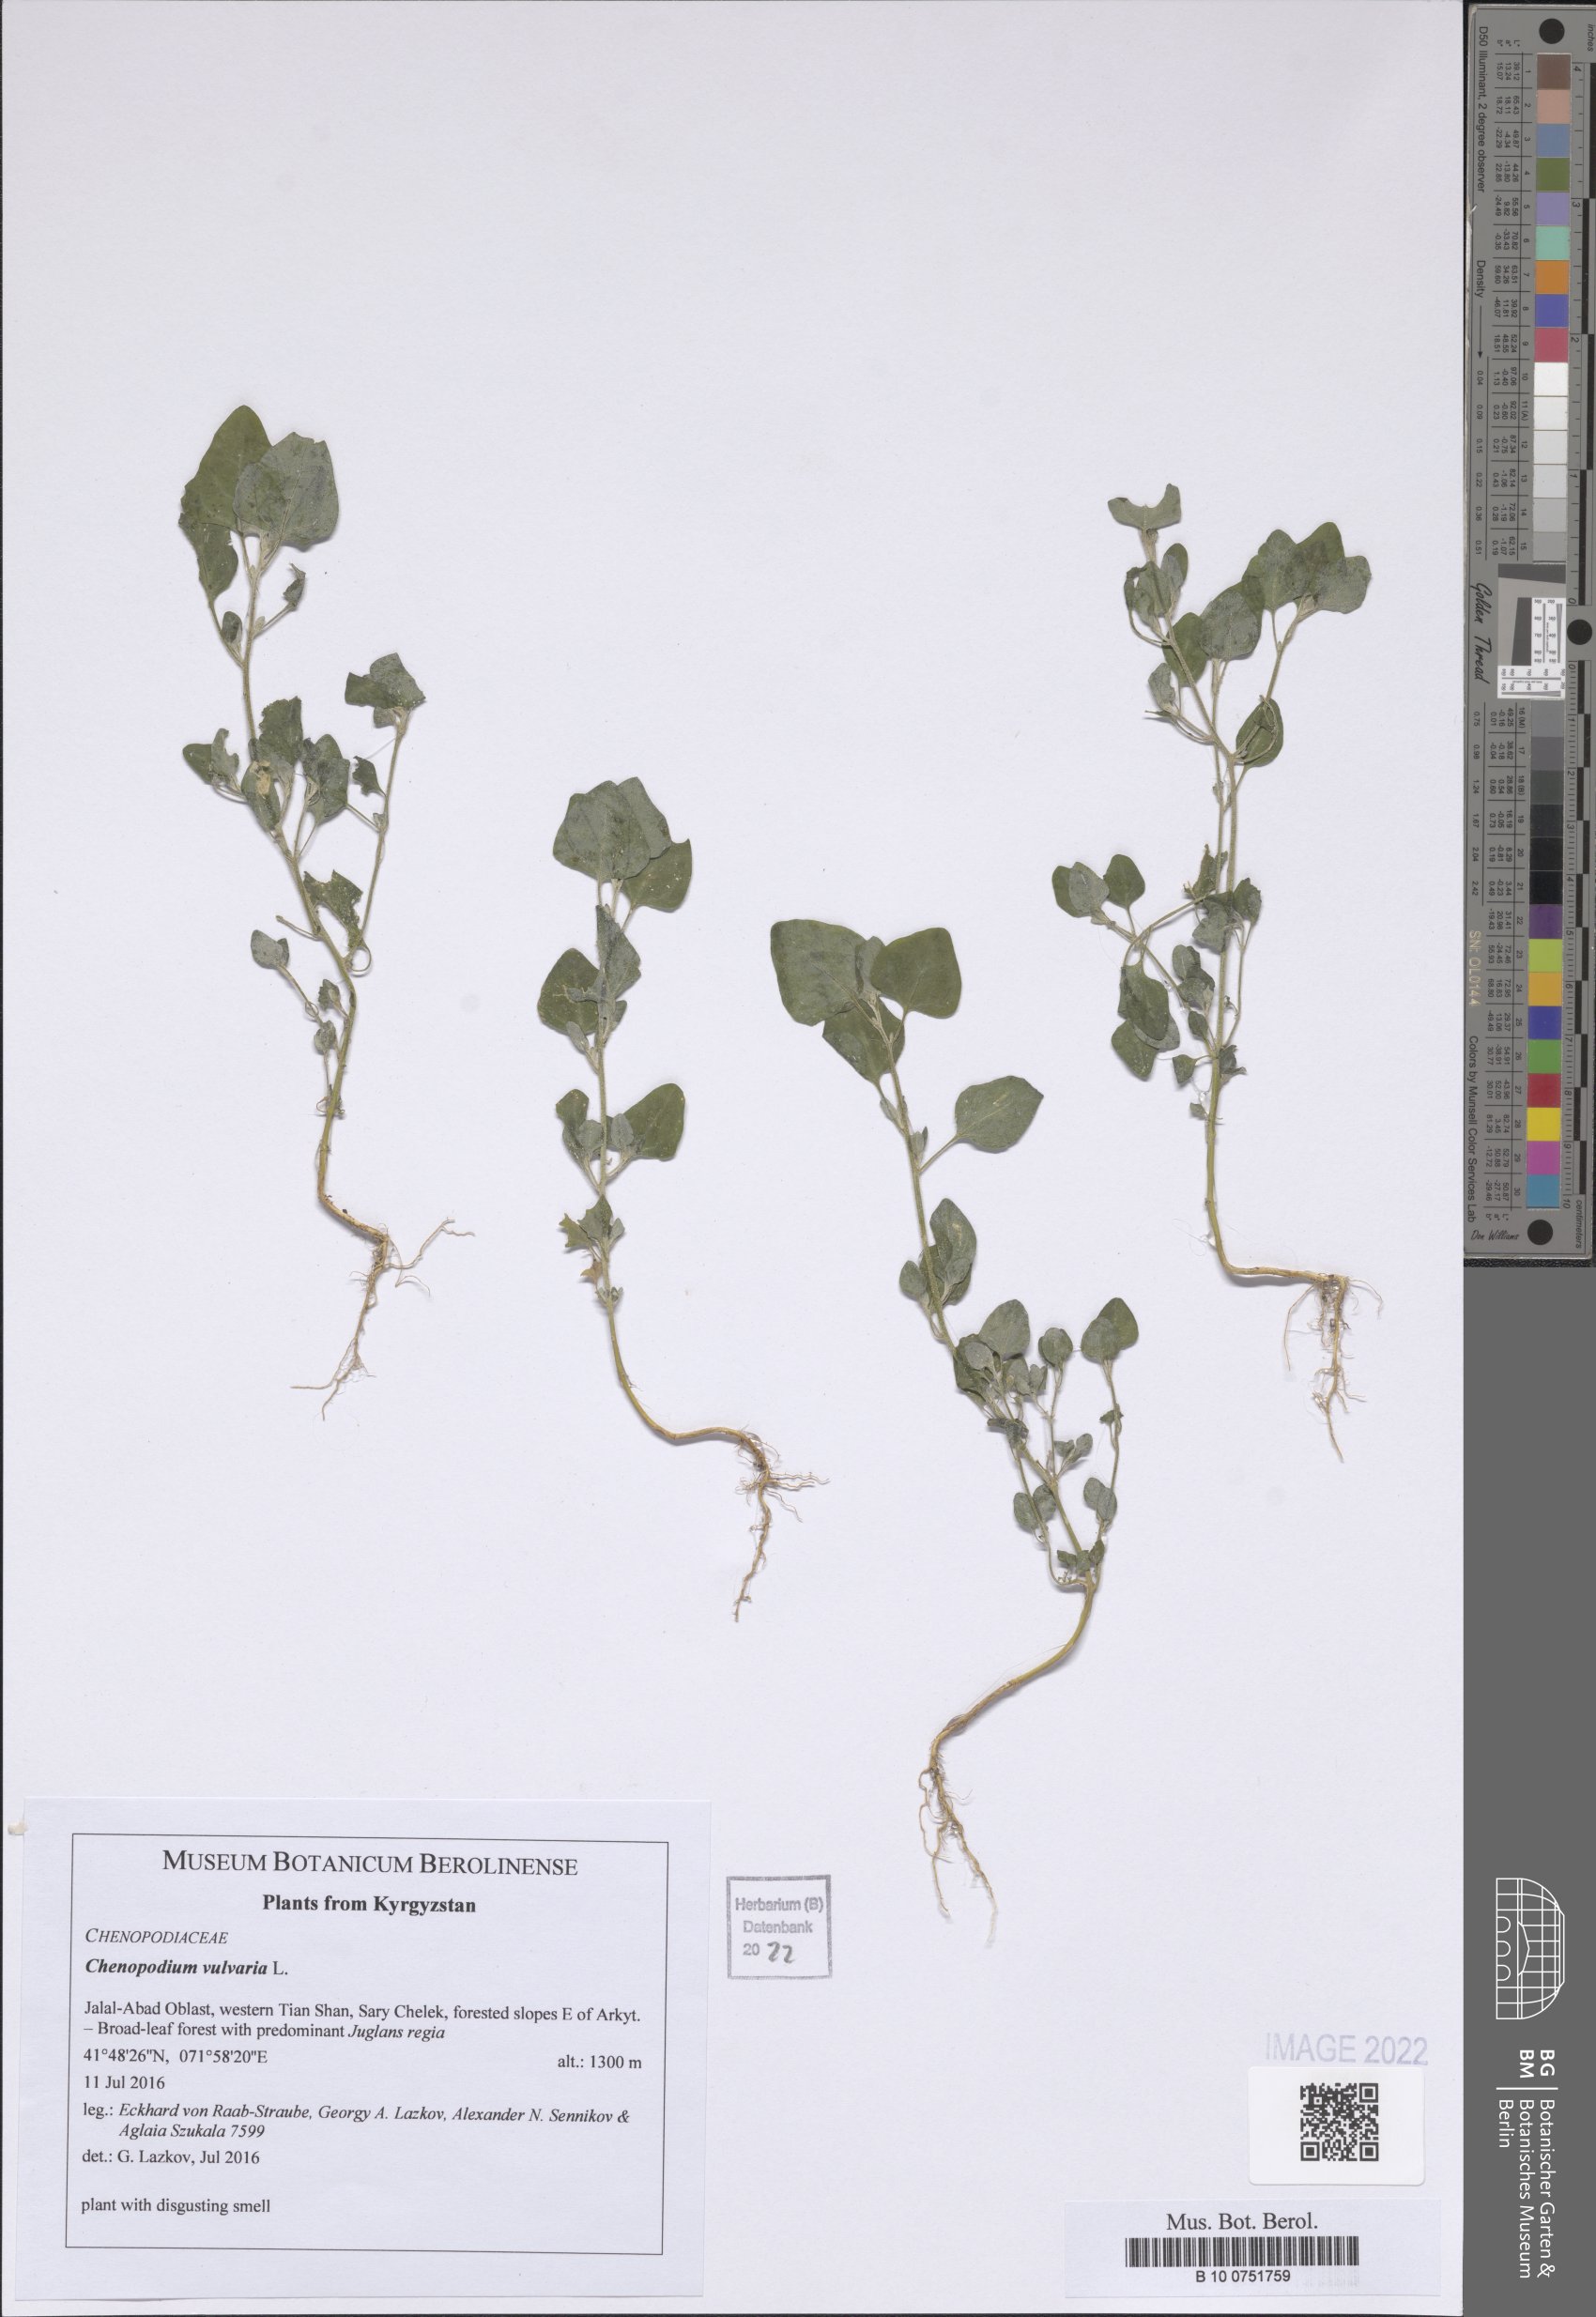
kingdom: Plantae
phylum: Tracheophyta
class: Magnoliopsida
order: Caryophyllales
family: Amaranthaceae
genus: Chenopodium
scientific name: Chenopodium vulvaria
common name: Stinking goosefoot
